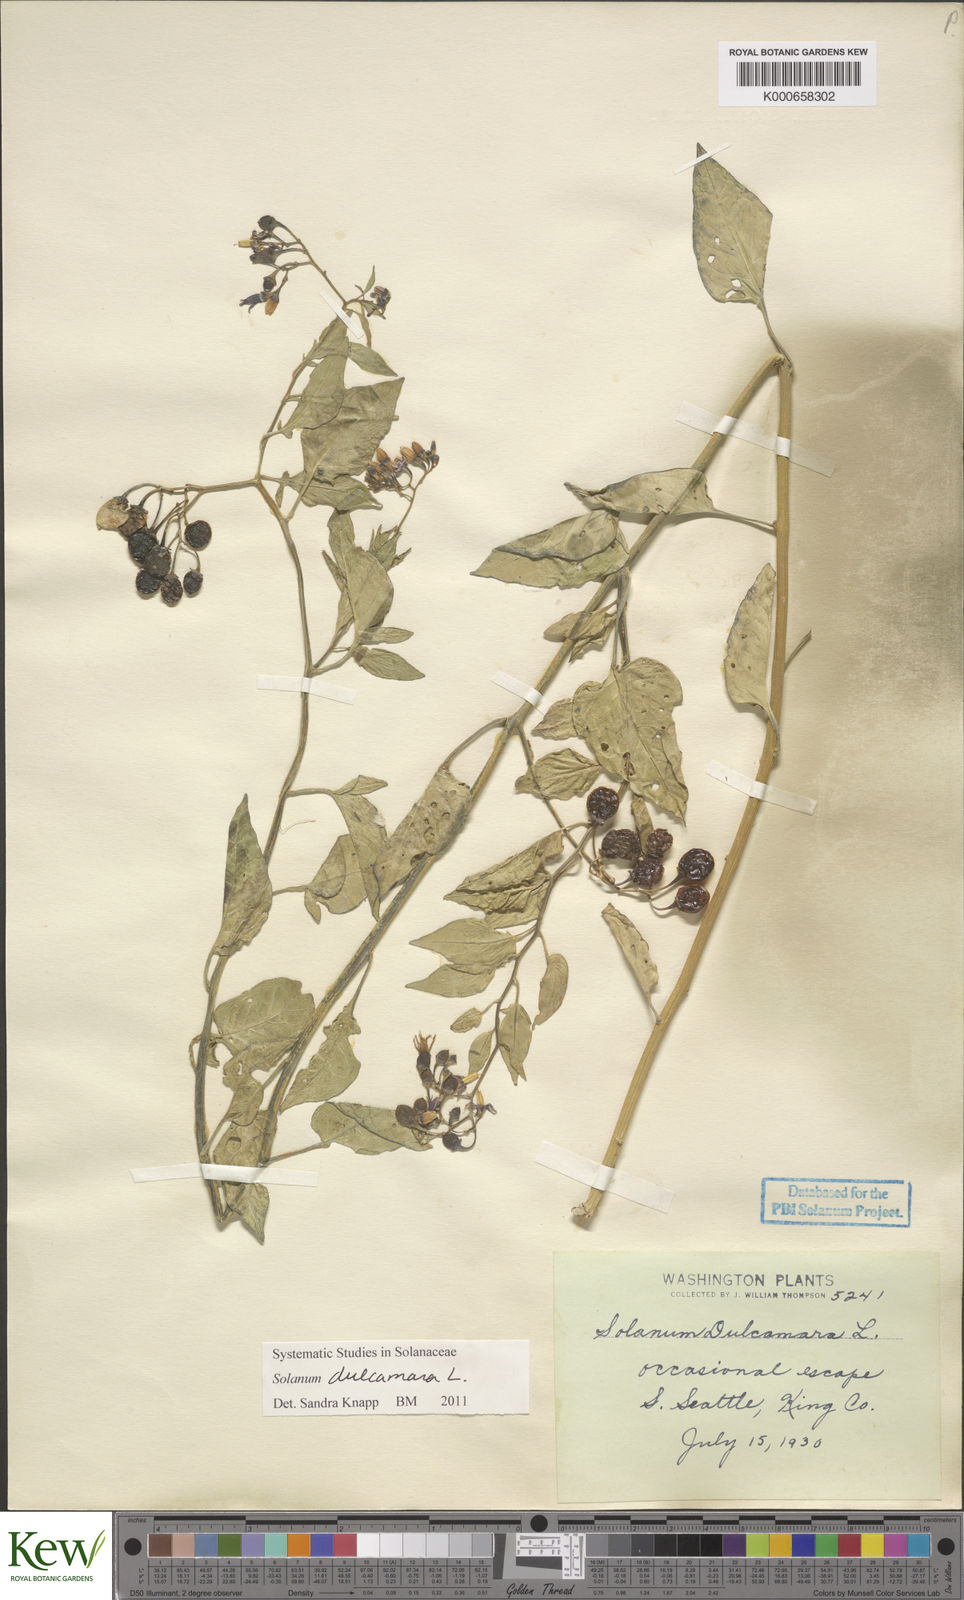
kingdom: Plantae
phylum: Tracheophyta
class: Magnoliopsida
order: Solanales
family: Solanaceae
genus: Solanum
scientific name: Solanum dulcamara
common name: Climbing nightshade
